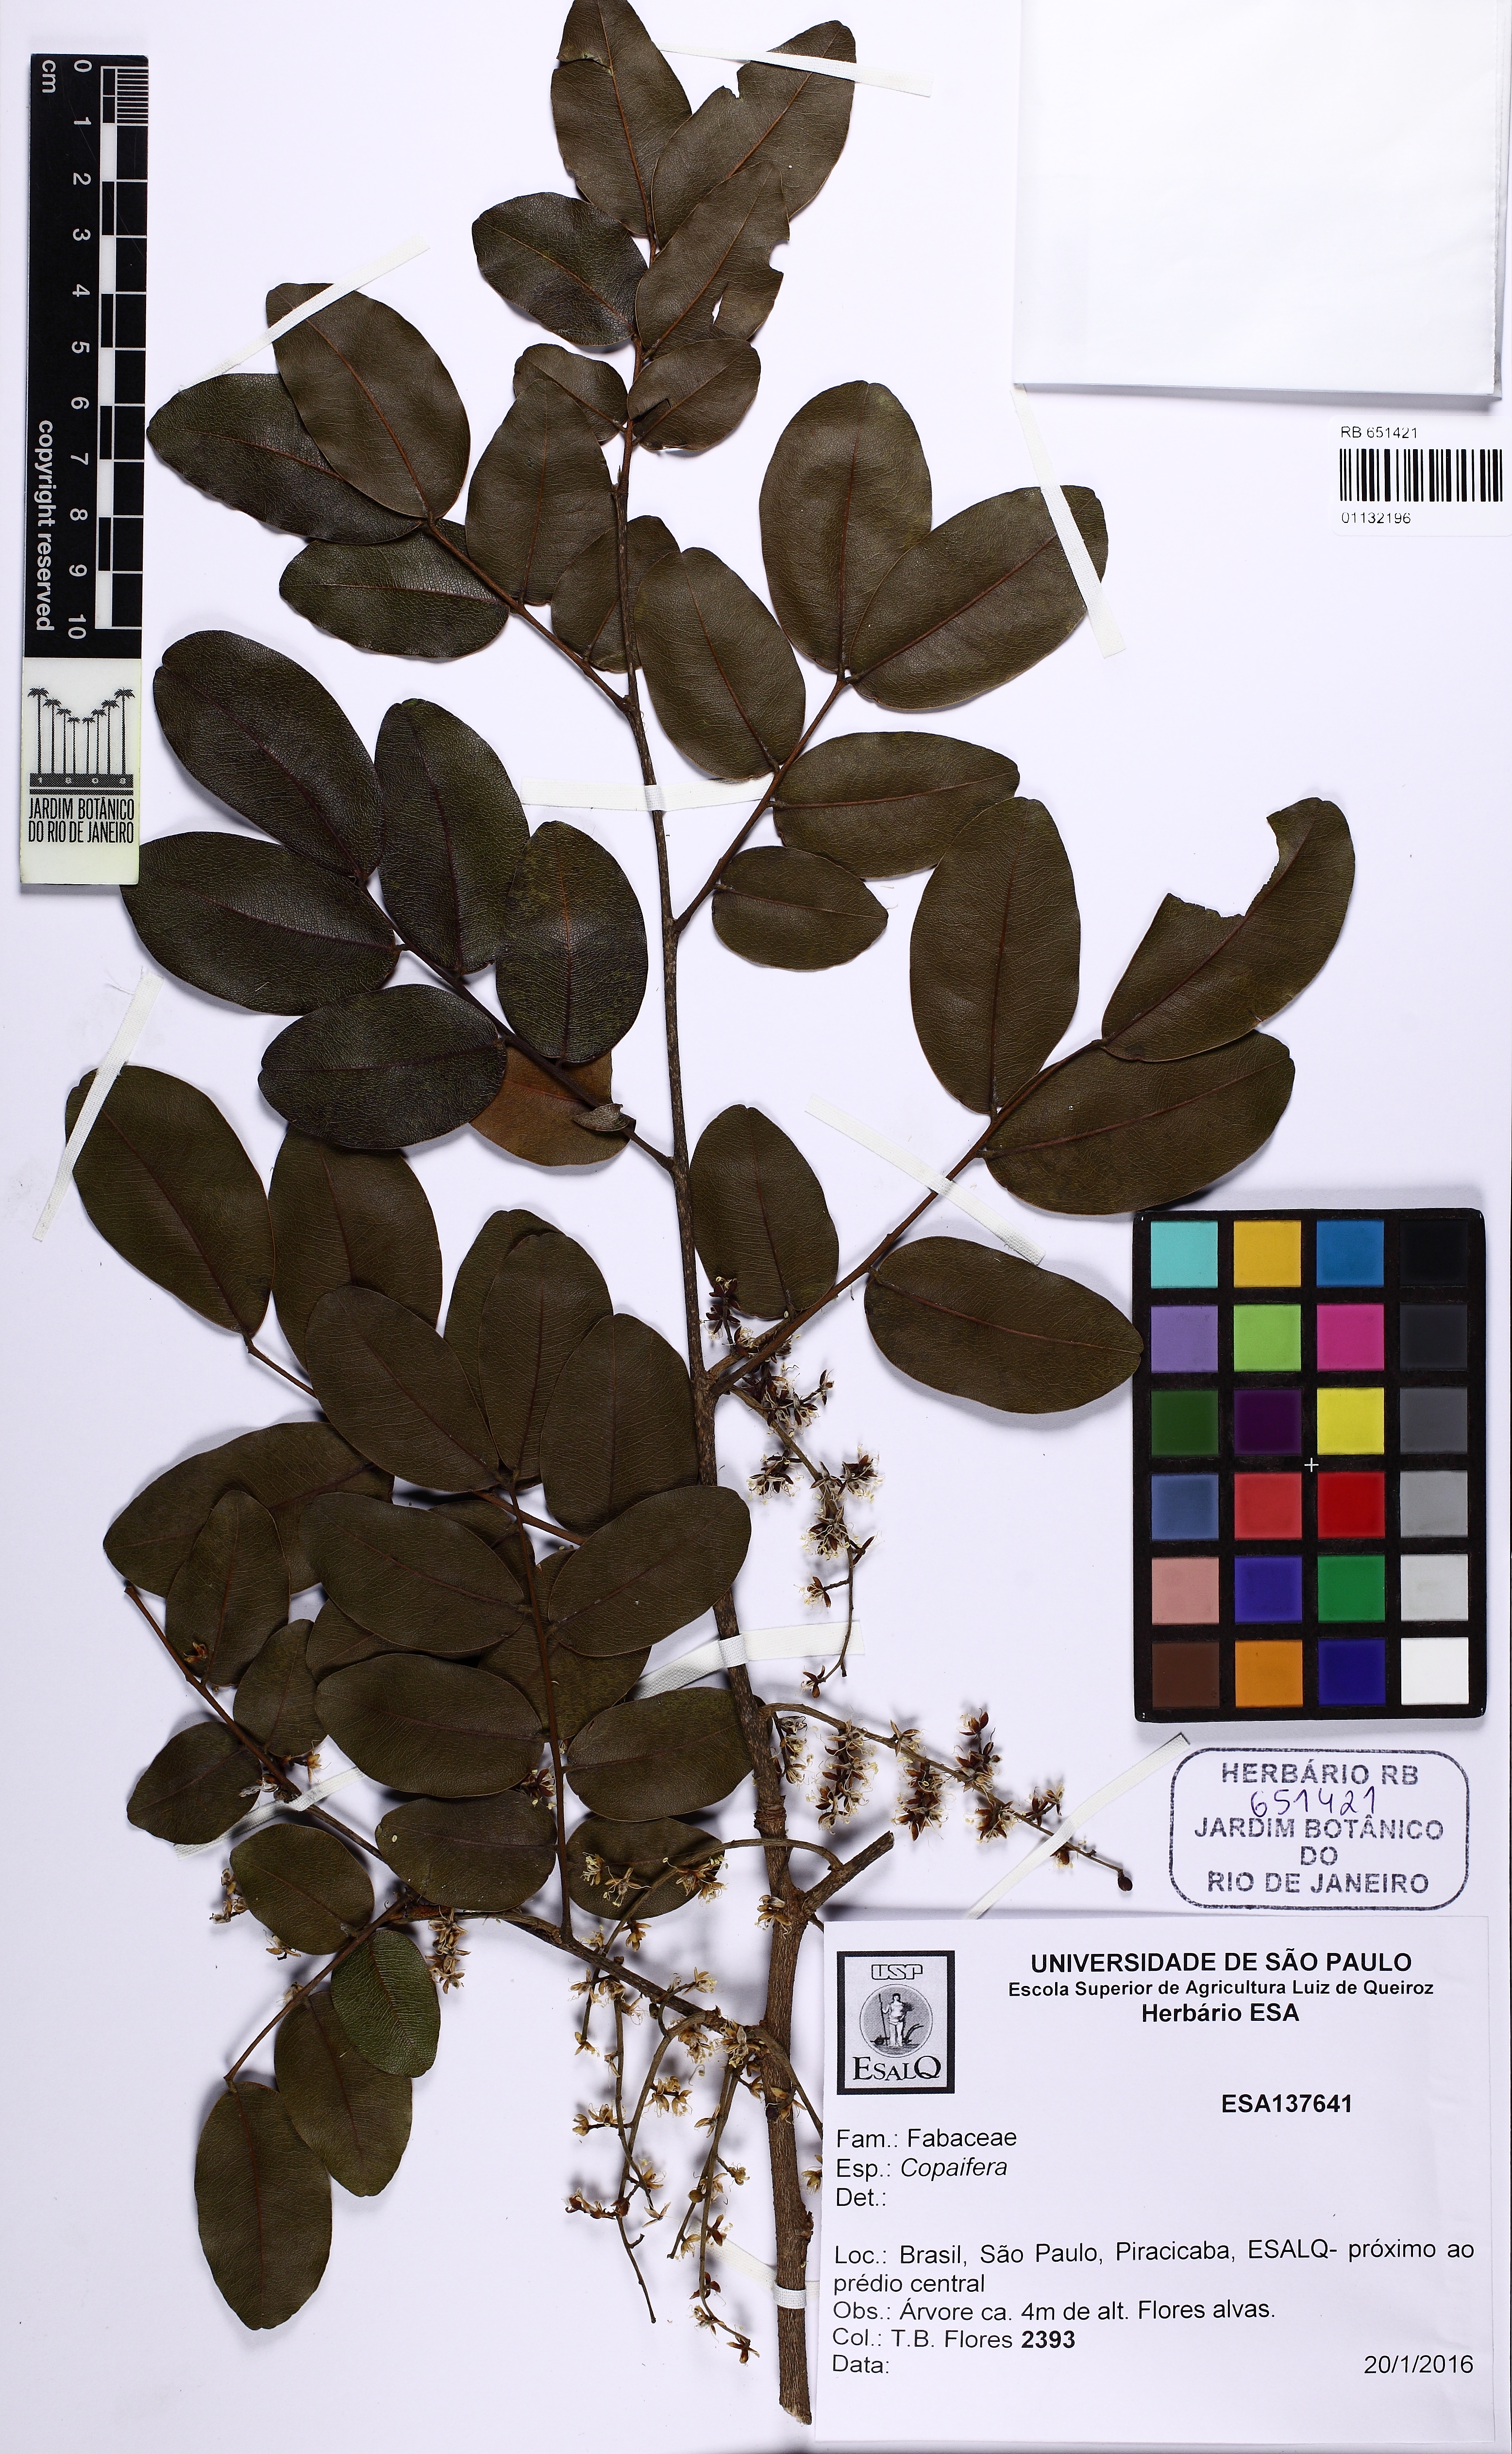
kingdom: Plantae
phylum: Tracheophyta
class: Magnoliopsida
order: Fabales
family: Fabaceae
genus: Copaifera
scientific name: Copaifera
